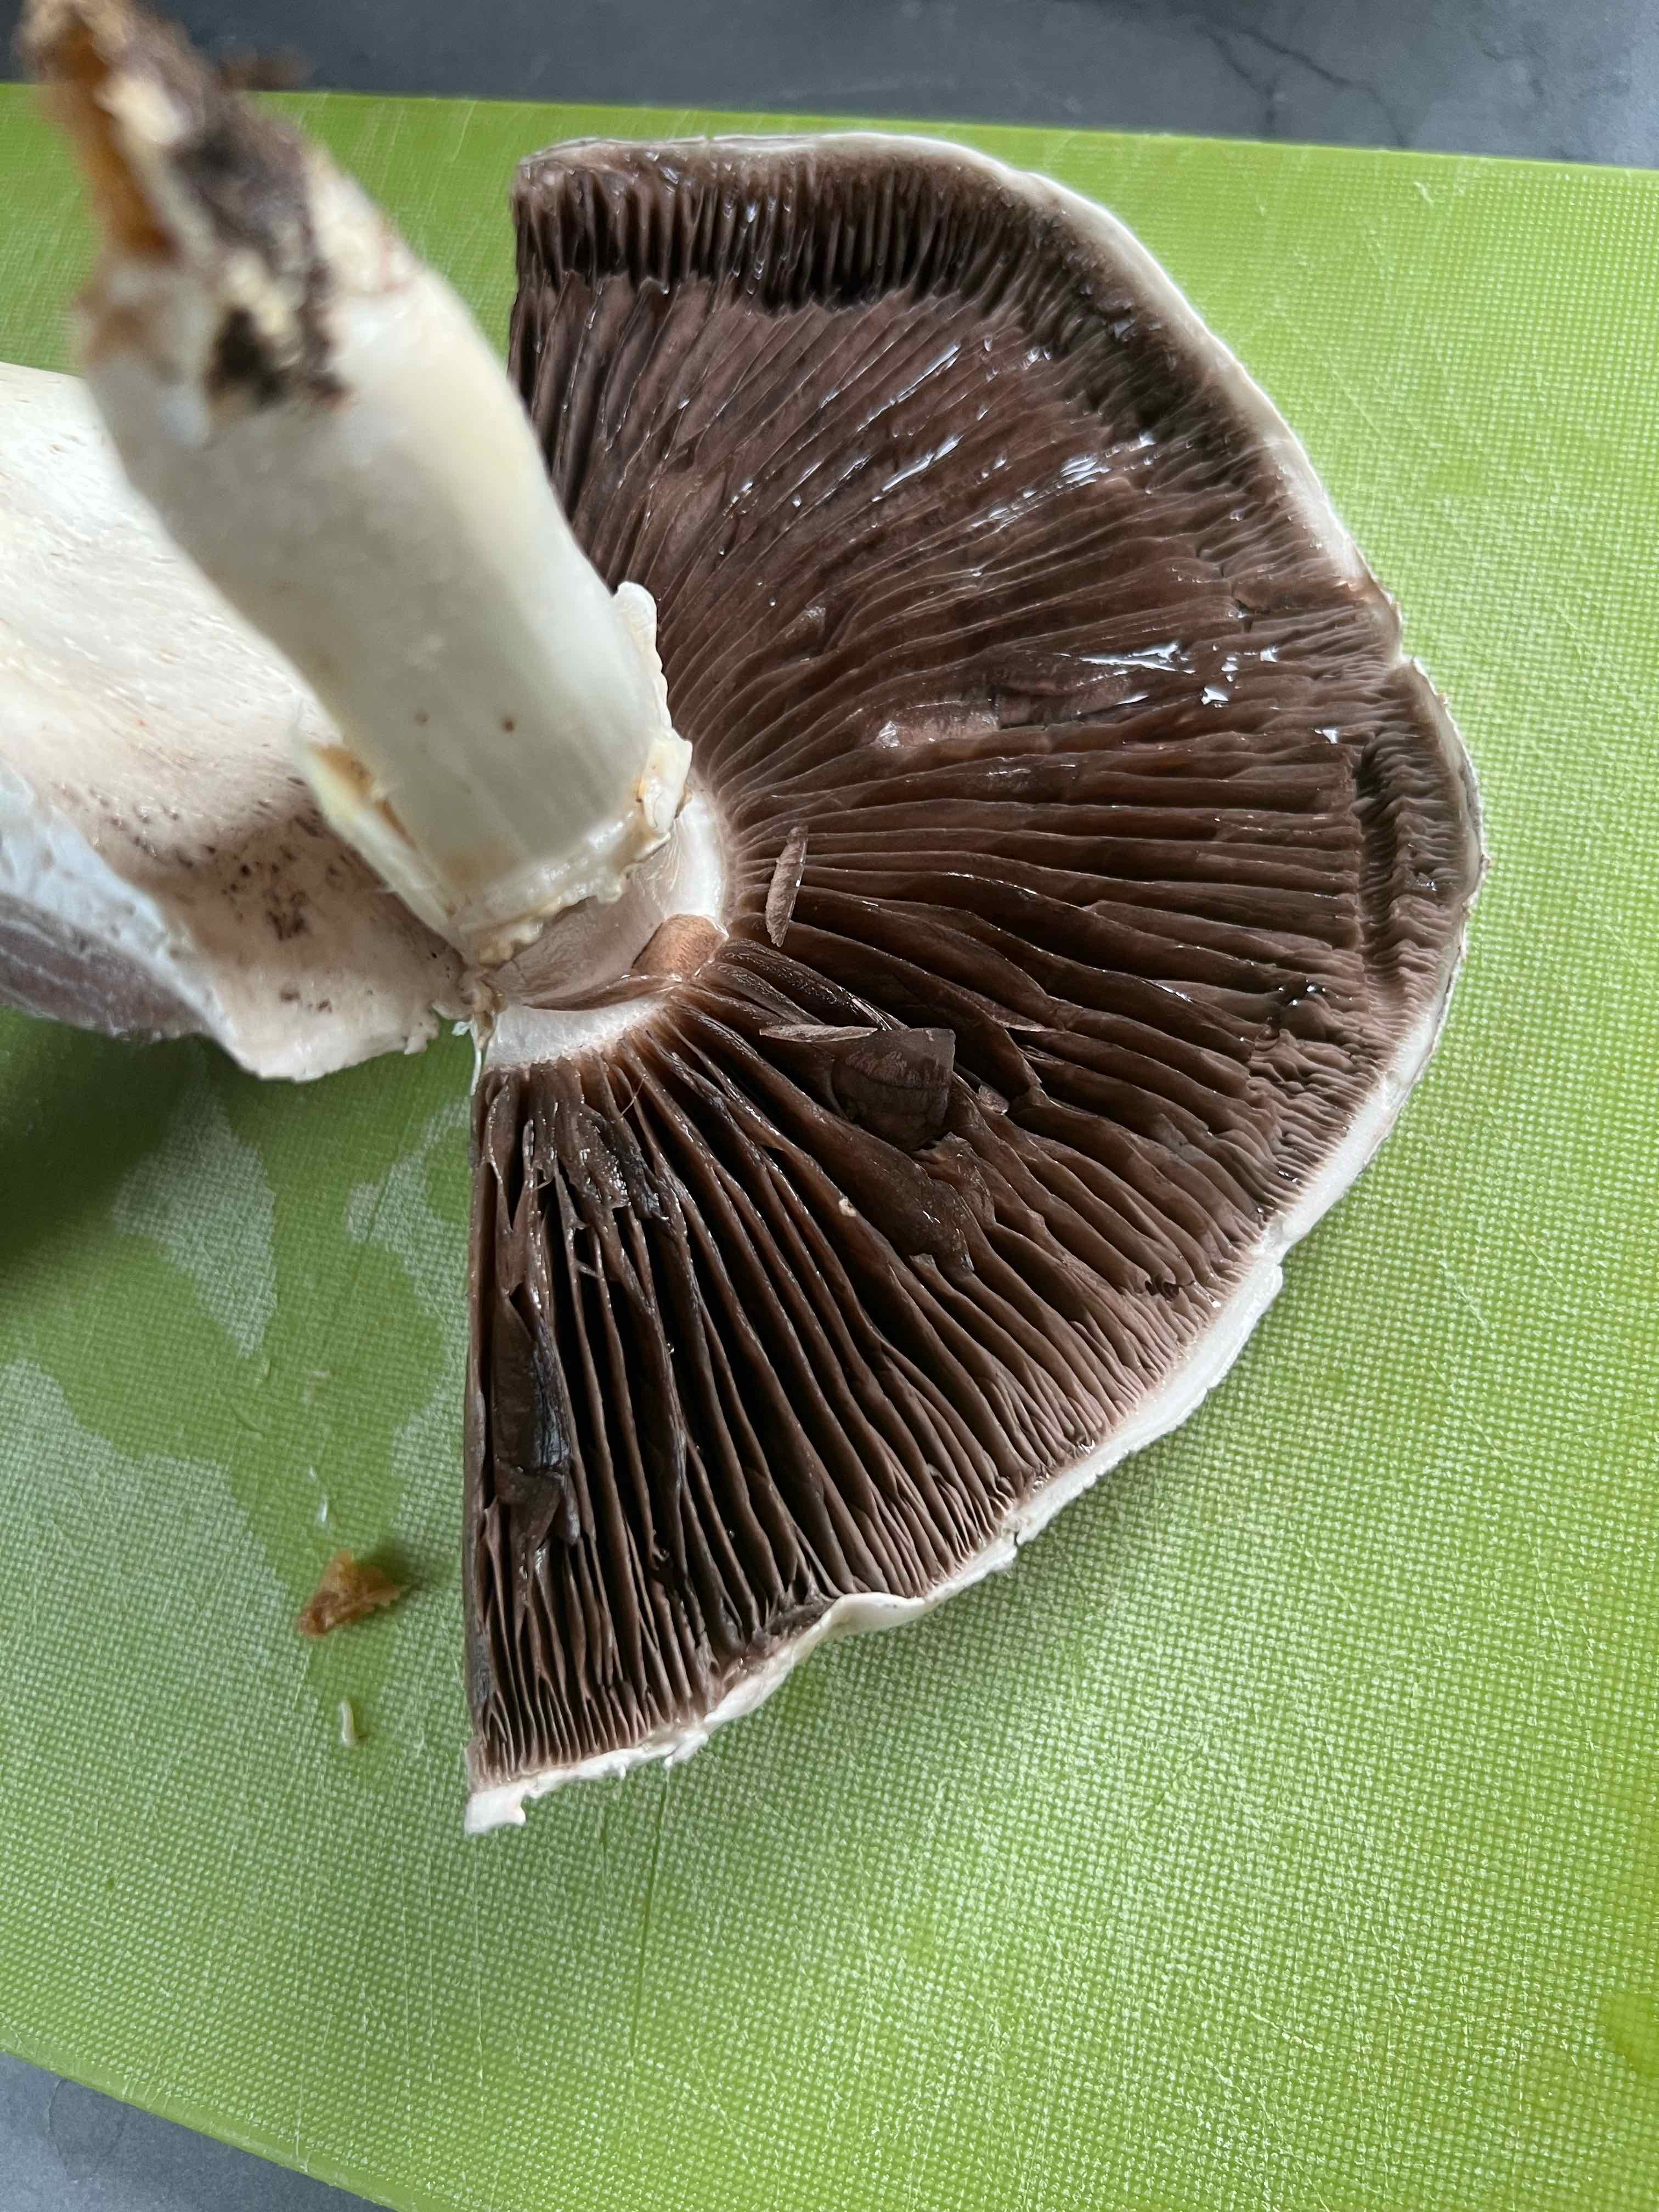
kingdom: Fungi
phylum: Basidiomycota
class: Agaricomycetes
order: Agaricales
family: Agaricaceae
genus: Agaricus
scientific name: Agaricus
